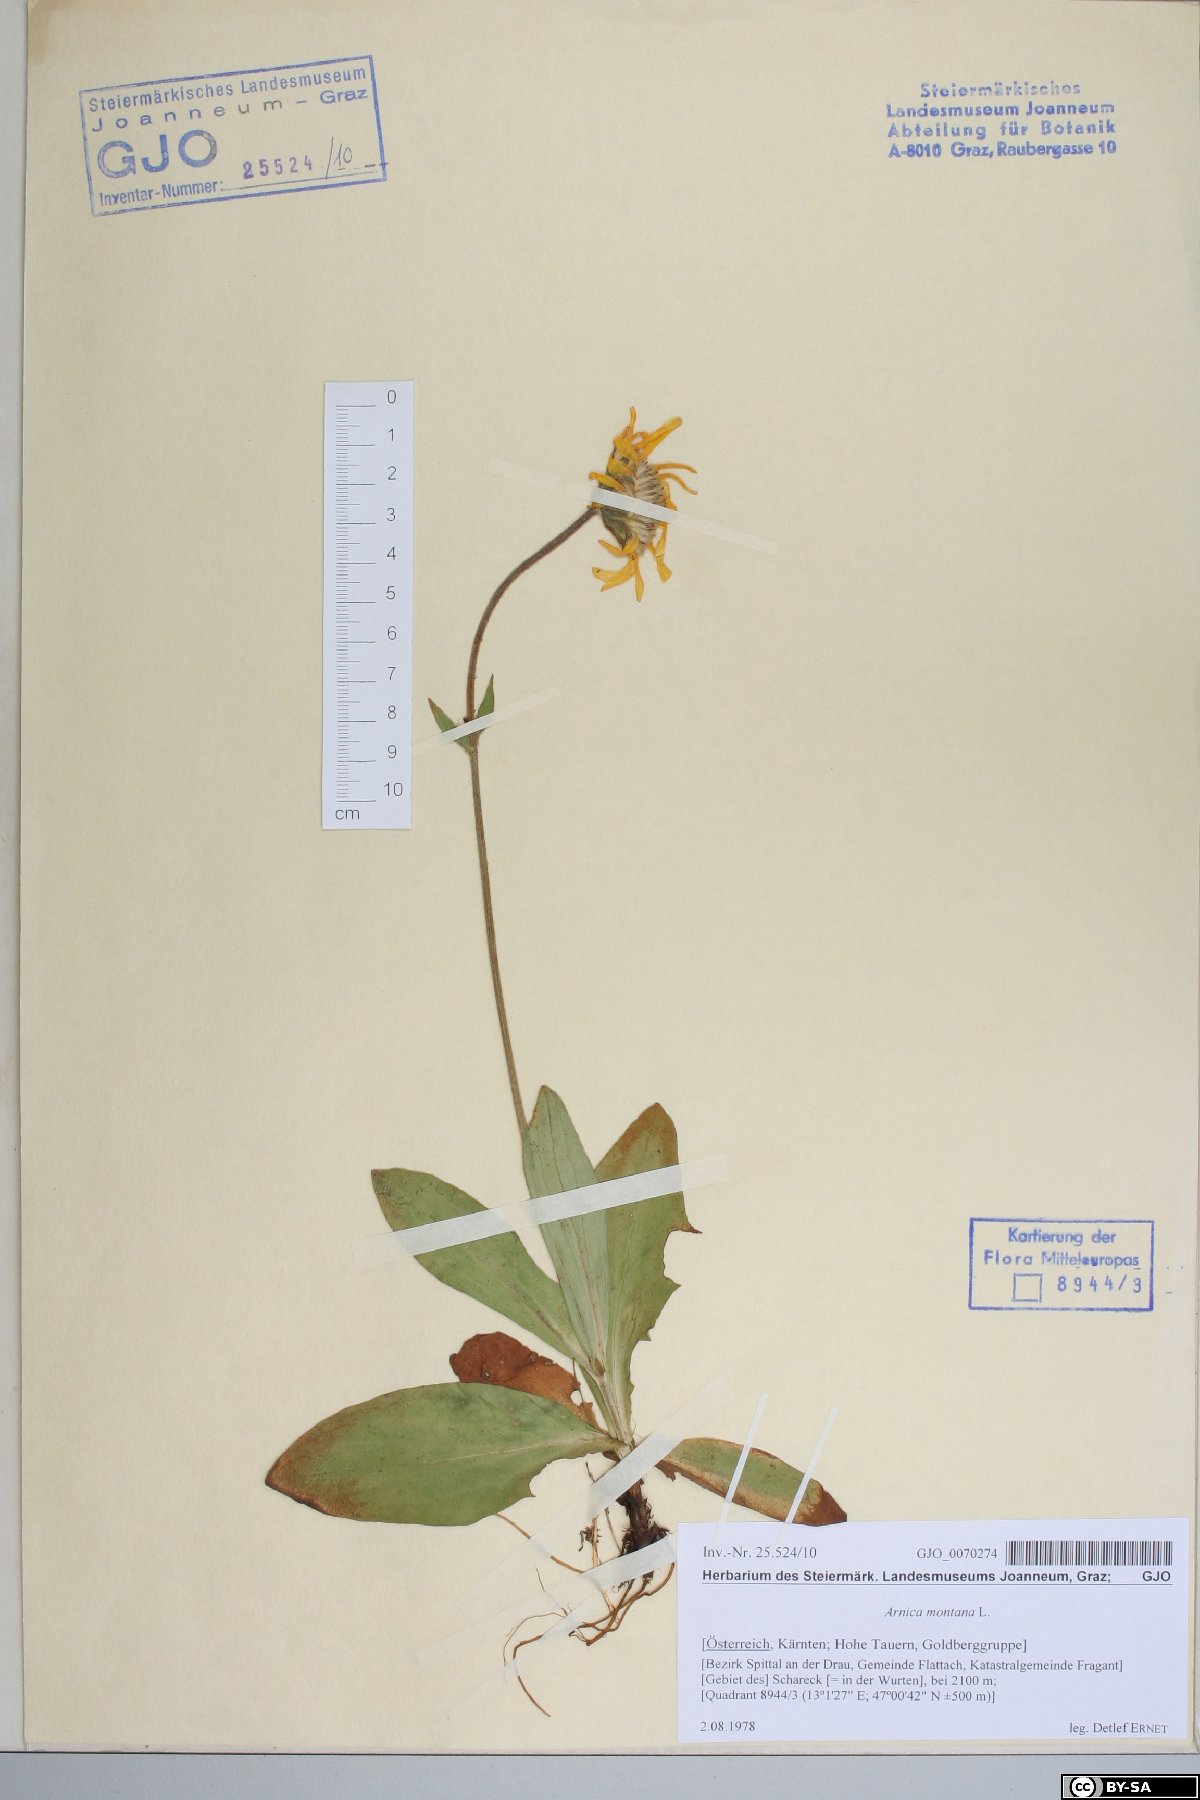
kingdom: Plantae
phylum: Tracheophyta
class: Magnoliopsida
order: Asterales
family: Asteraceae
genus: Arnica
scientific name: Arnica montana
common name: Leopard's bane
